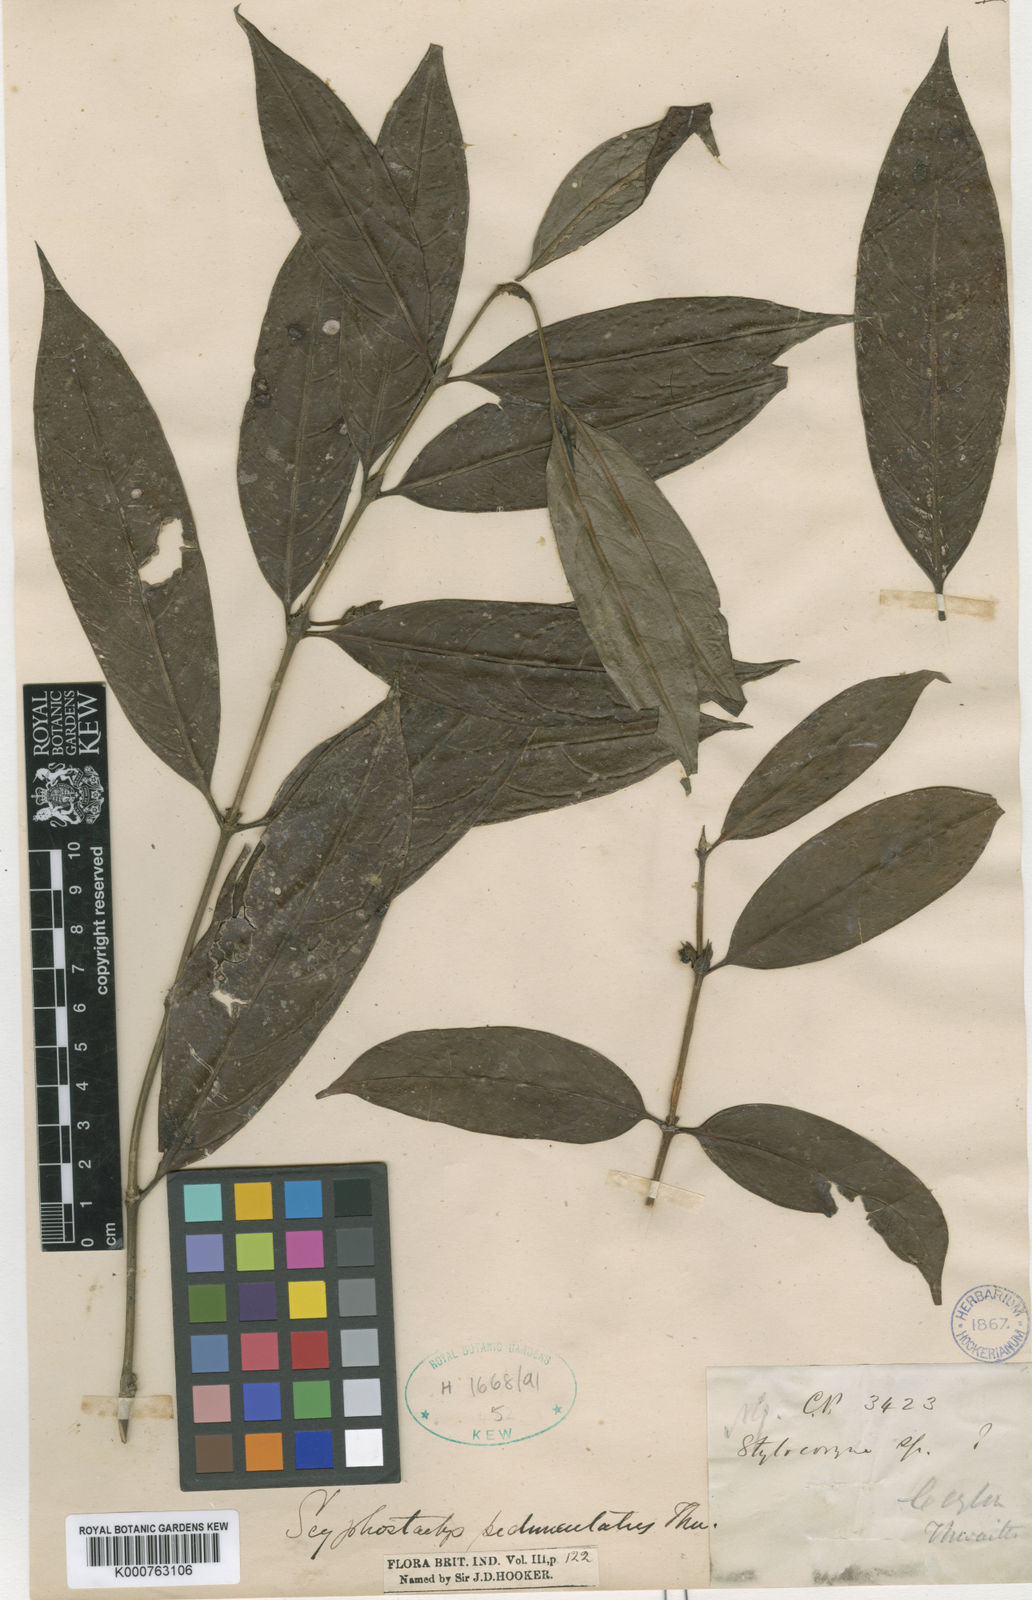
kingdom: Plantae
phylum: Tracheophyta
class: Magnoliopsida
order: Gentianales
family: Rubiaceae
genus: Scyphostachys
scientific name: Scyphostachys pedunculatus
